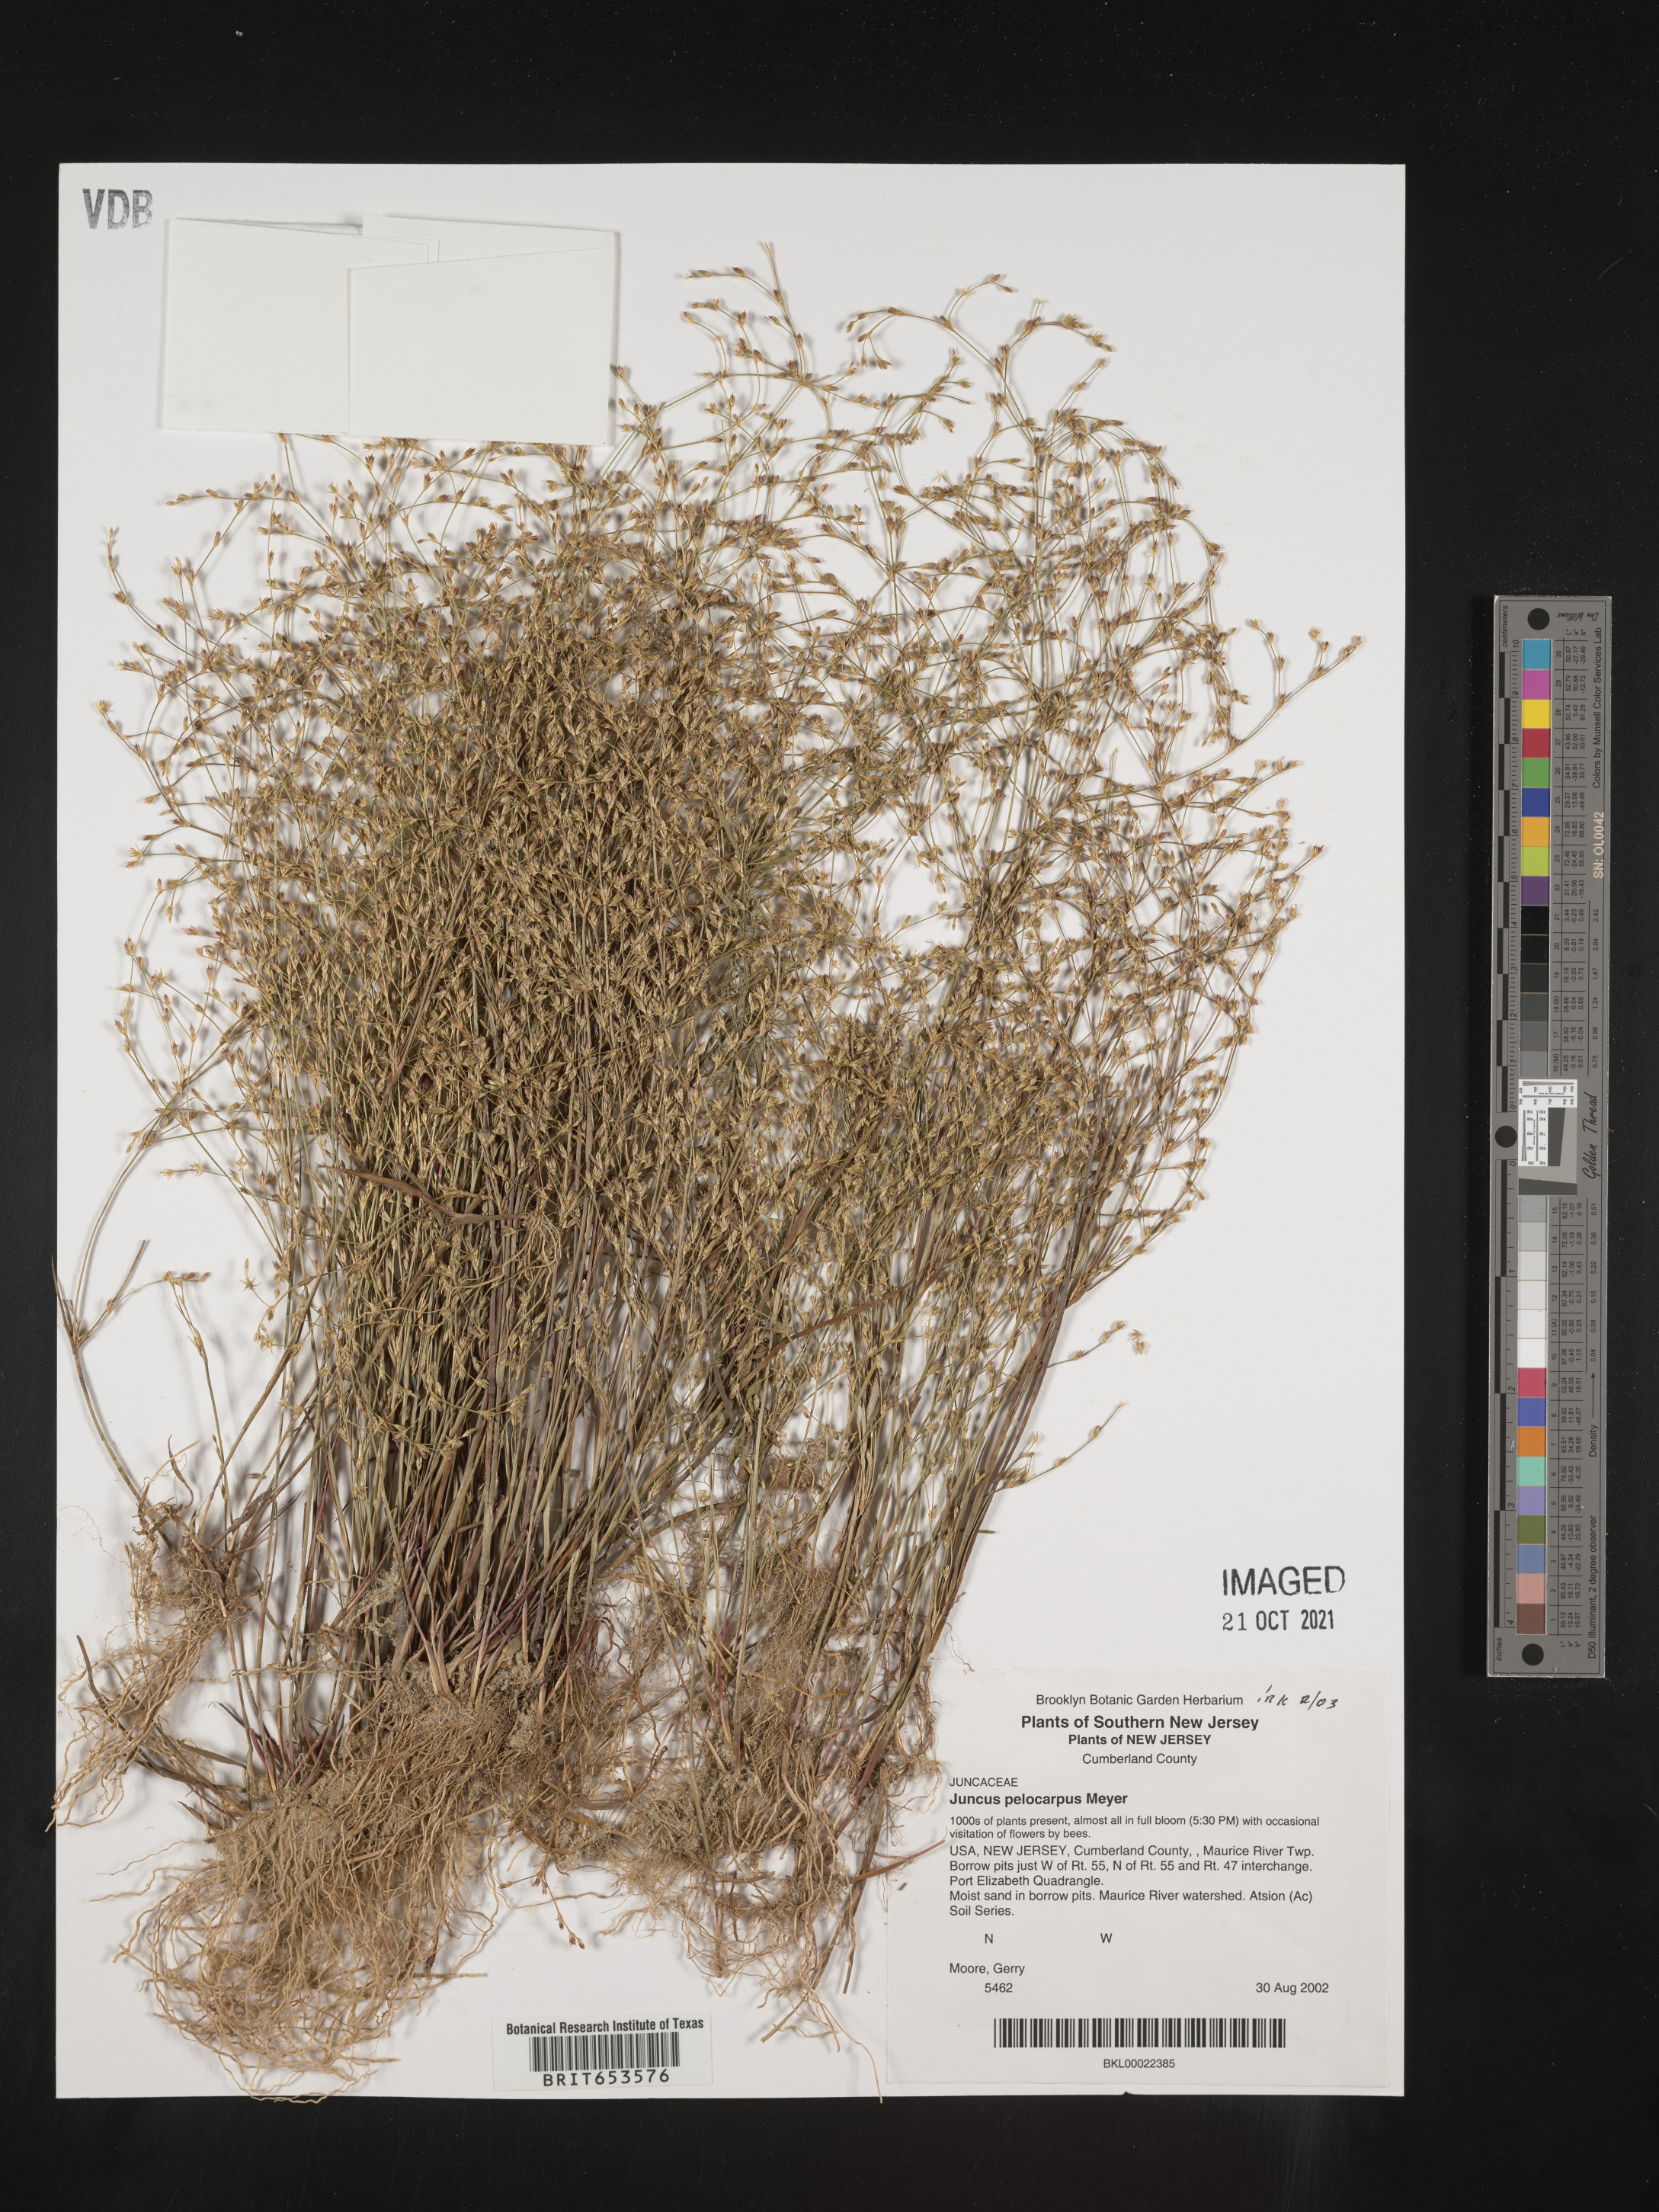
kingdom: Plantae
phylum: Tracheophyta
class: Liliopsida
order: Poales
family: Juncaceae
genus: Juncus
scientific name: Juncus pelocarpus
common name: Brown-fruited rush
